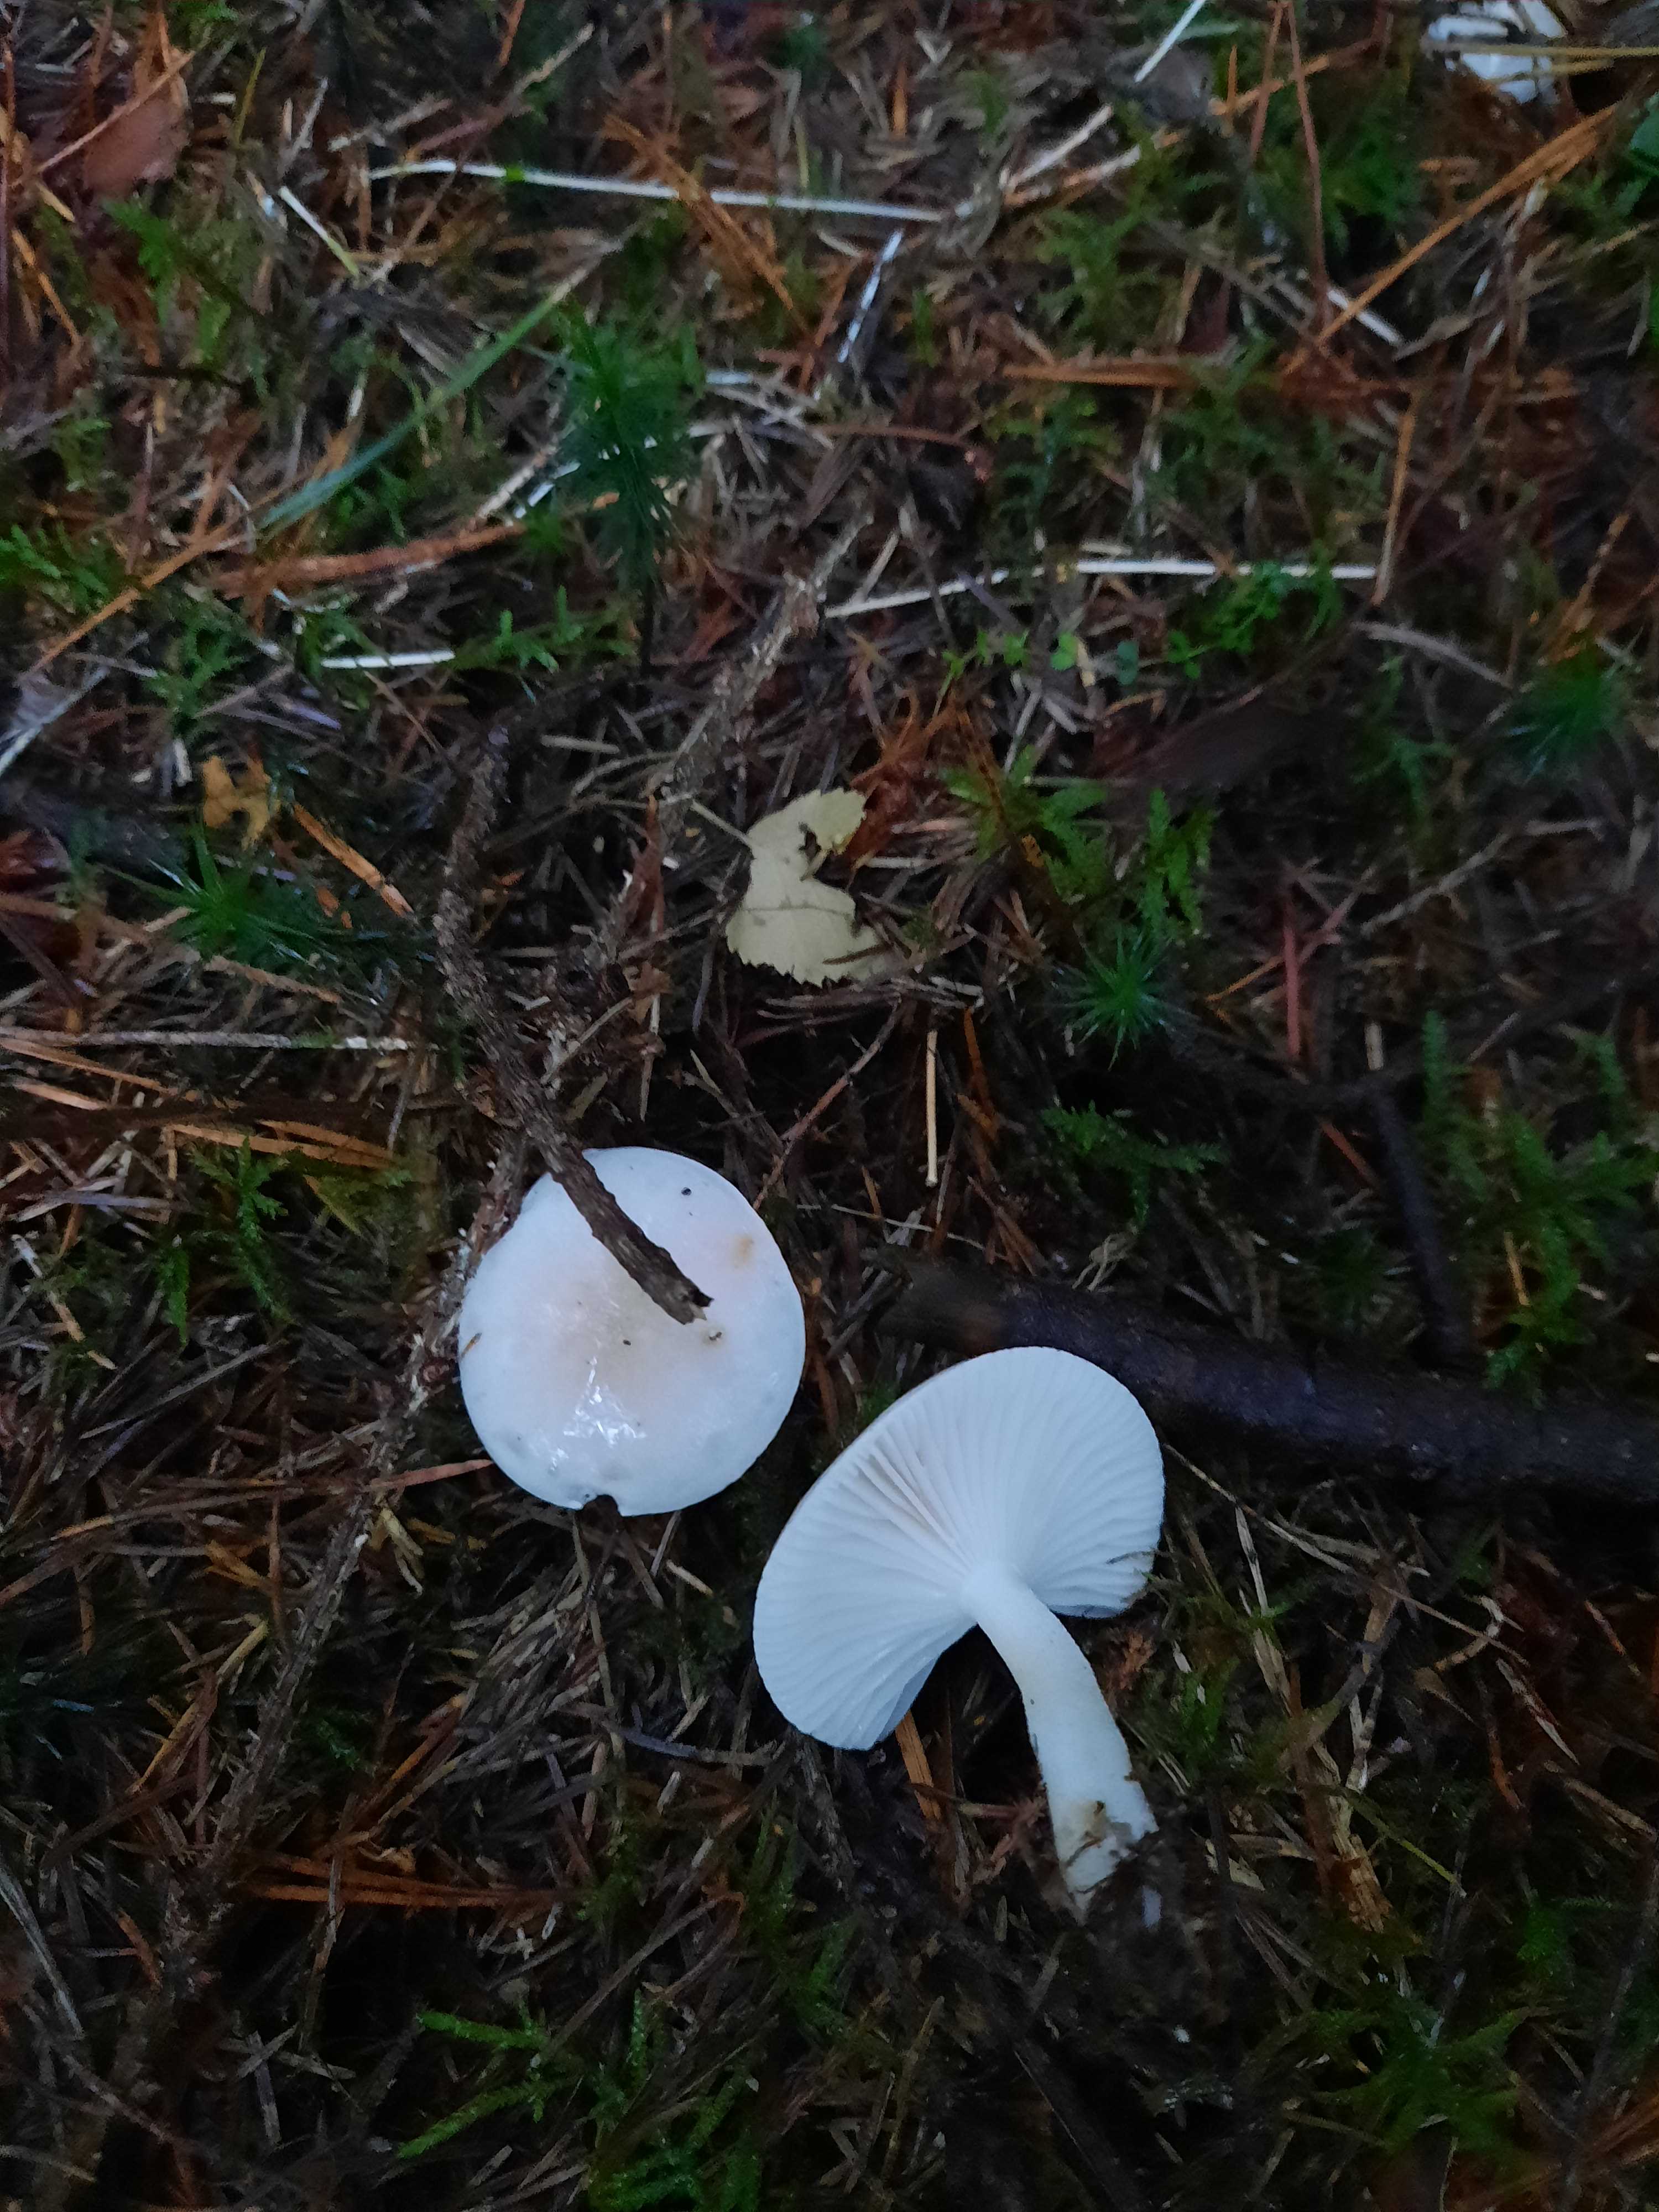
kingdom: Fungi
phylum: Basidiomycota
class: Agaricomycetes
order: Agaricales
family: Hygrophoraceae
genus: Hygrophorus
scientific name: Hygrophorus agathosmus
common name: vellugtende sneglehat
